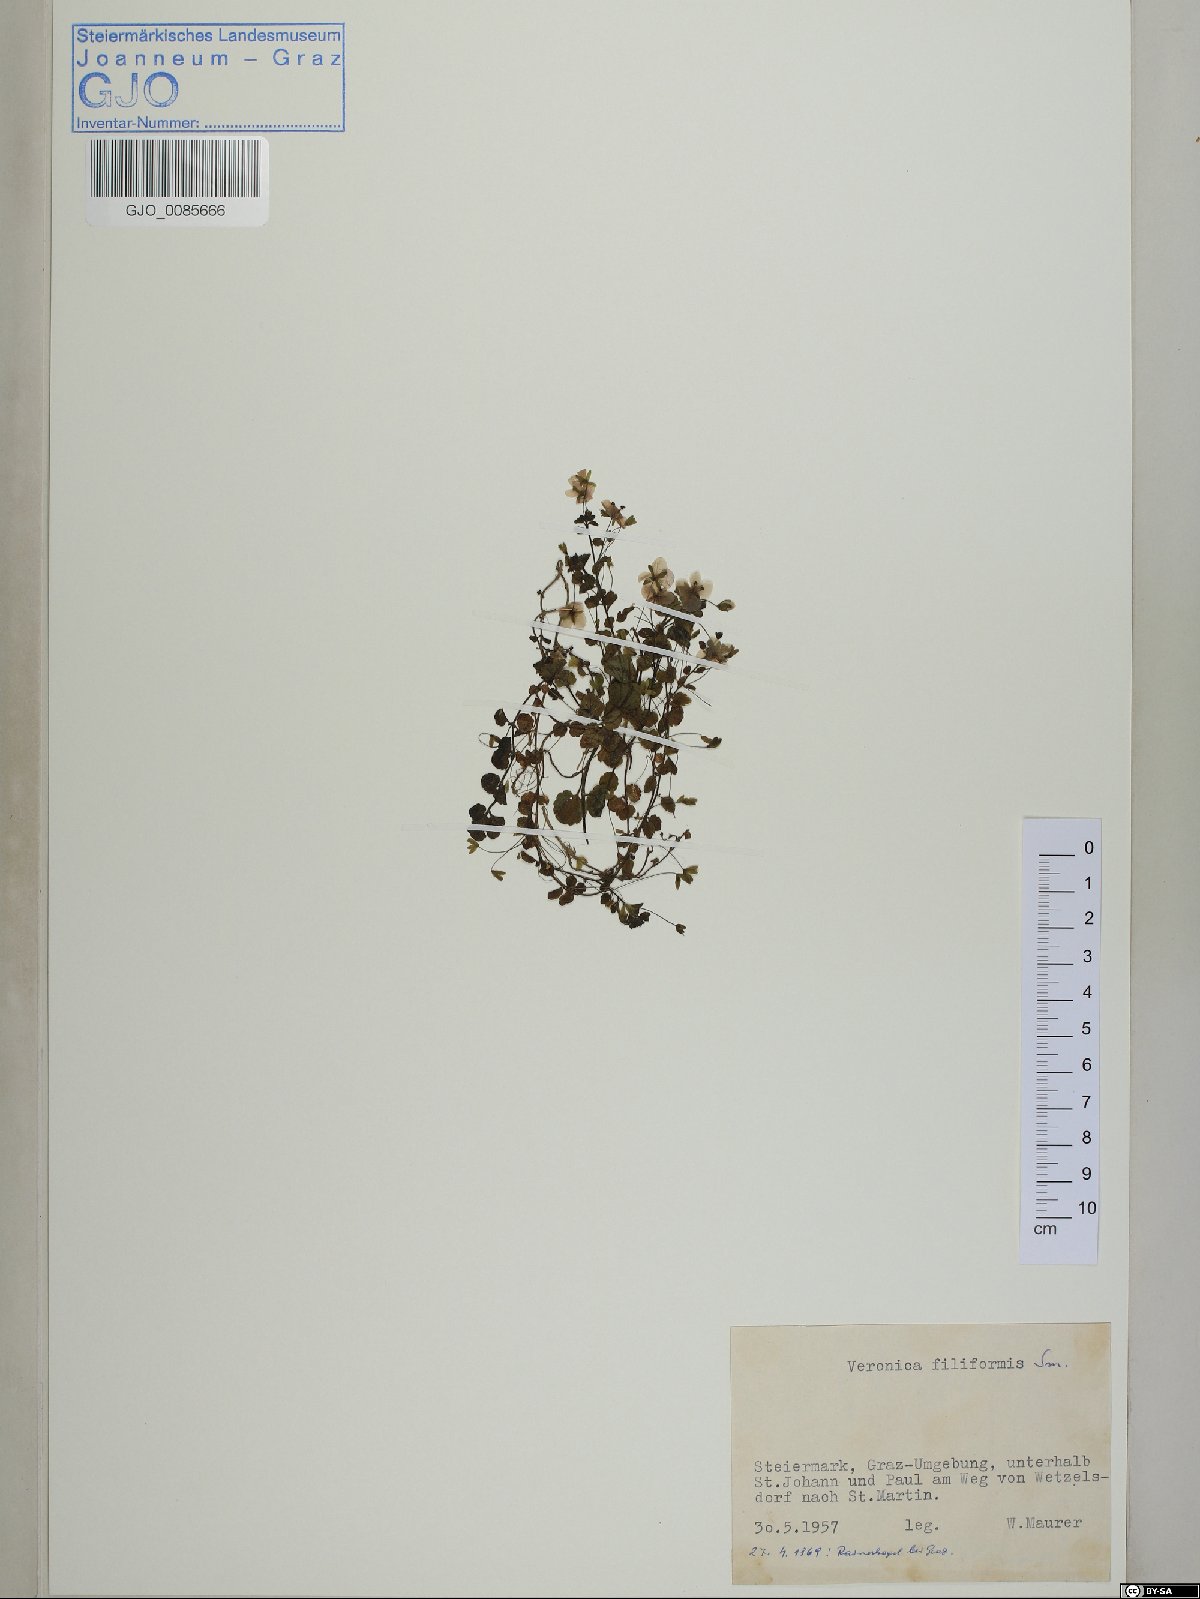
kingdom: Plantae
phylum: Tracheophyta
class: Magnoliopsida
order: Lamiales
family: Plantaginaceae
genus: Veronica
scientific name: Veronica filiformis
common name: Slender speedwell
